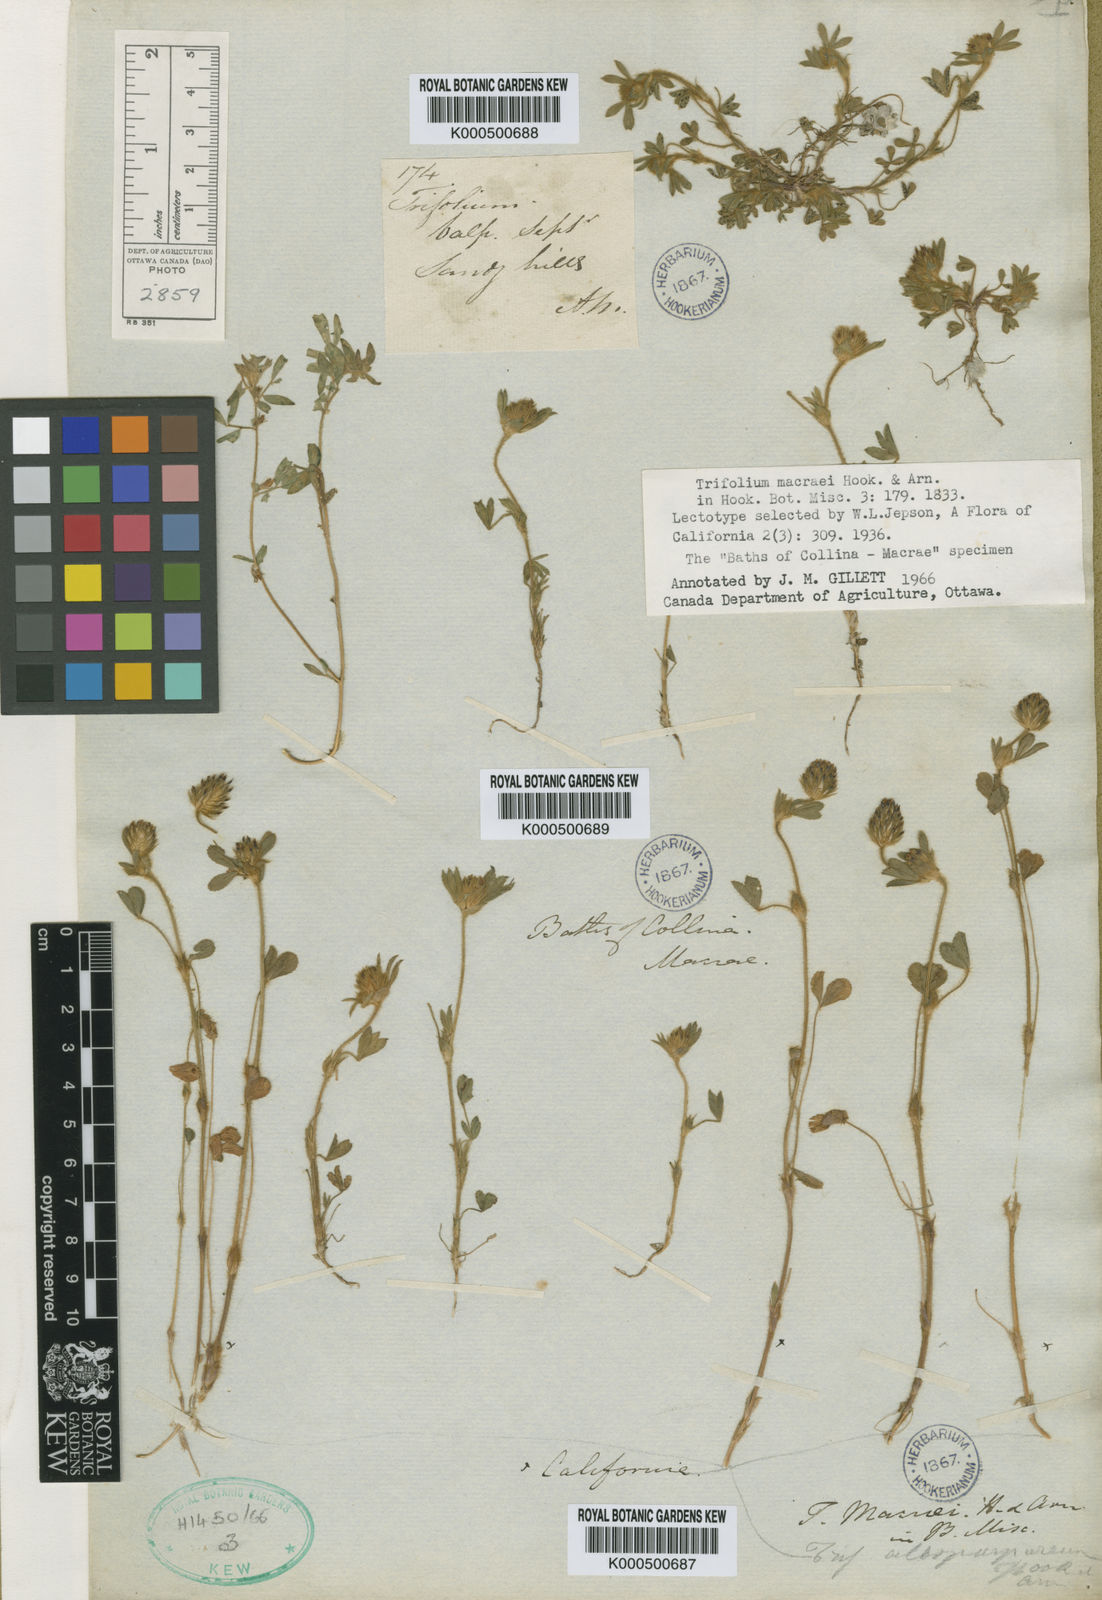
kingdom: Plantae
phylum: Tracheophyta
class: Magnoliopsida
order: Fabales
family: Fabaceae
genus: Trifolium
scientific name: Trifolium macraei
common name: Macrae's clover
